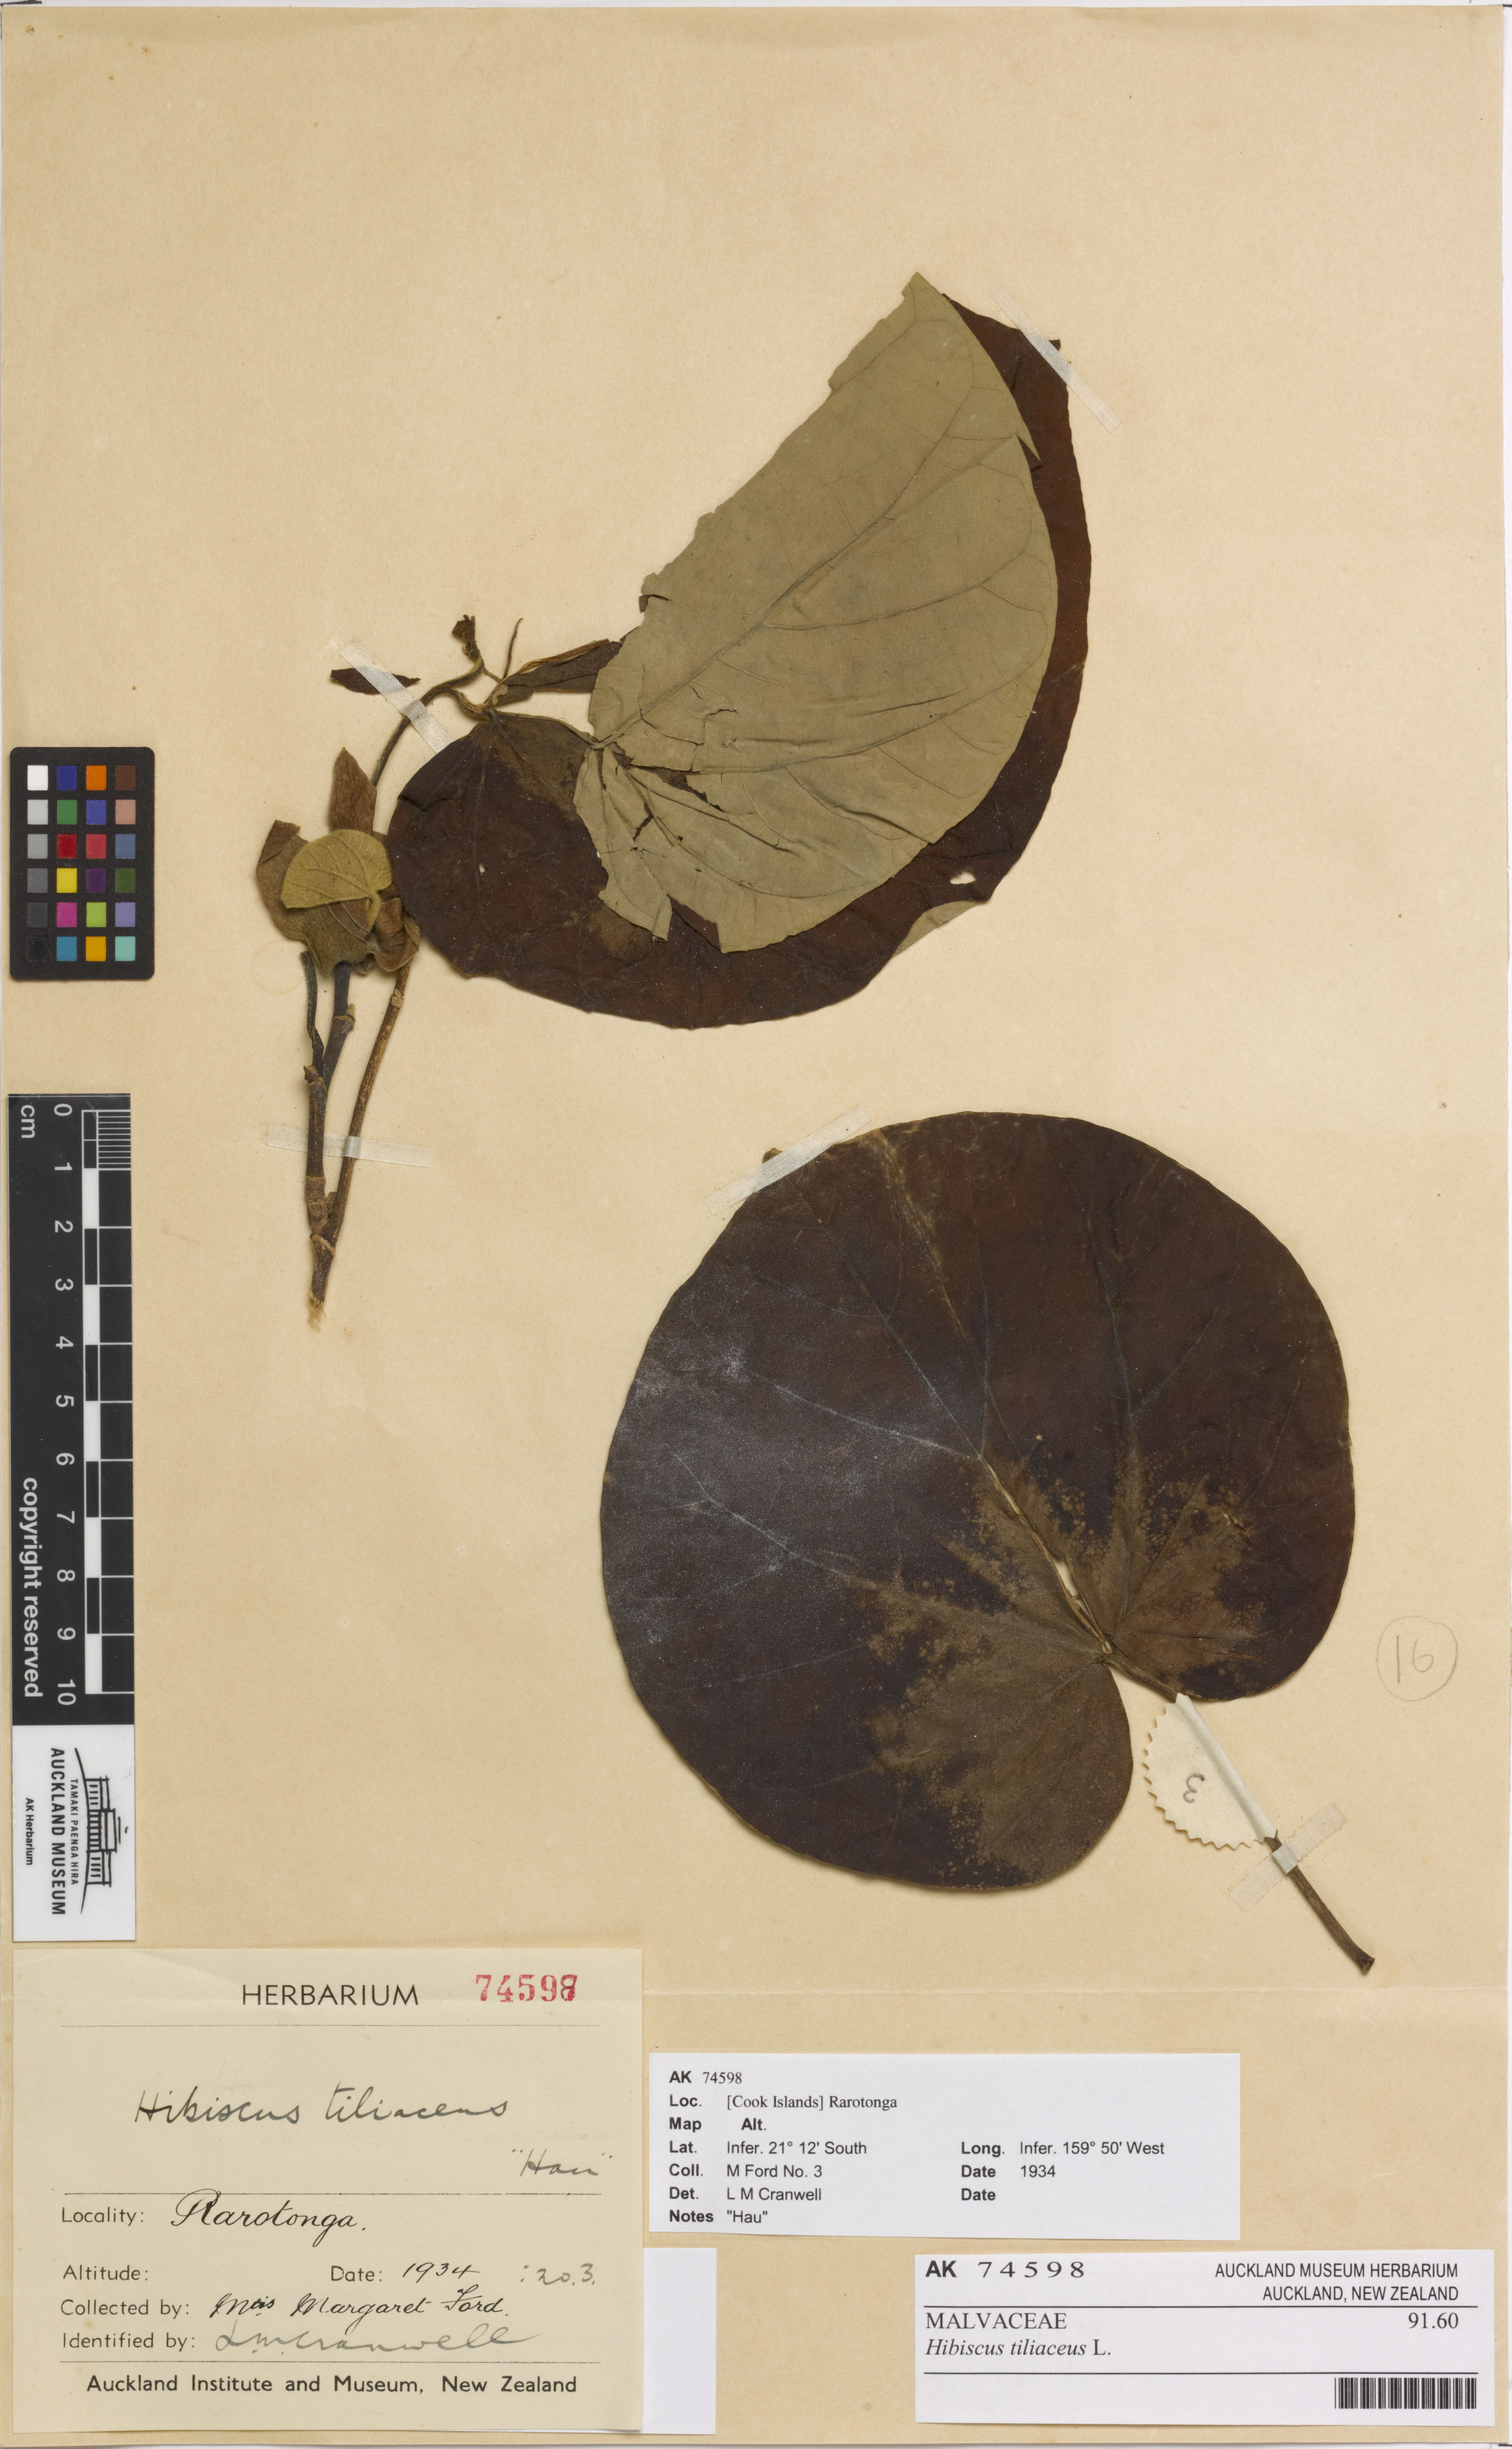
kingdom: Plantae
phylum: Tracheophyta
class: Magnoliopsida
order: Malvales
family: Malvaceae
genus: Talipariti
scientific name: Talipariti tiliaceum
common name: Sea hibiscus
